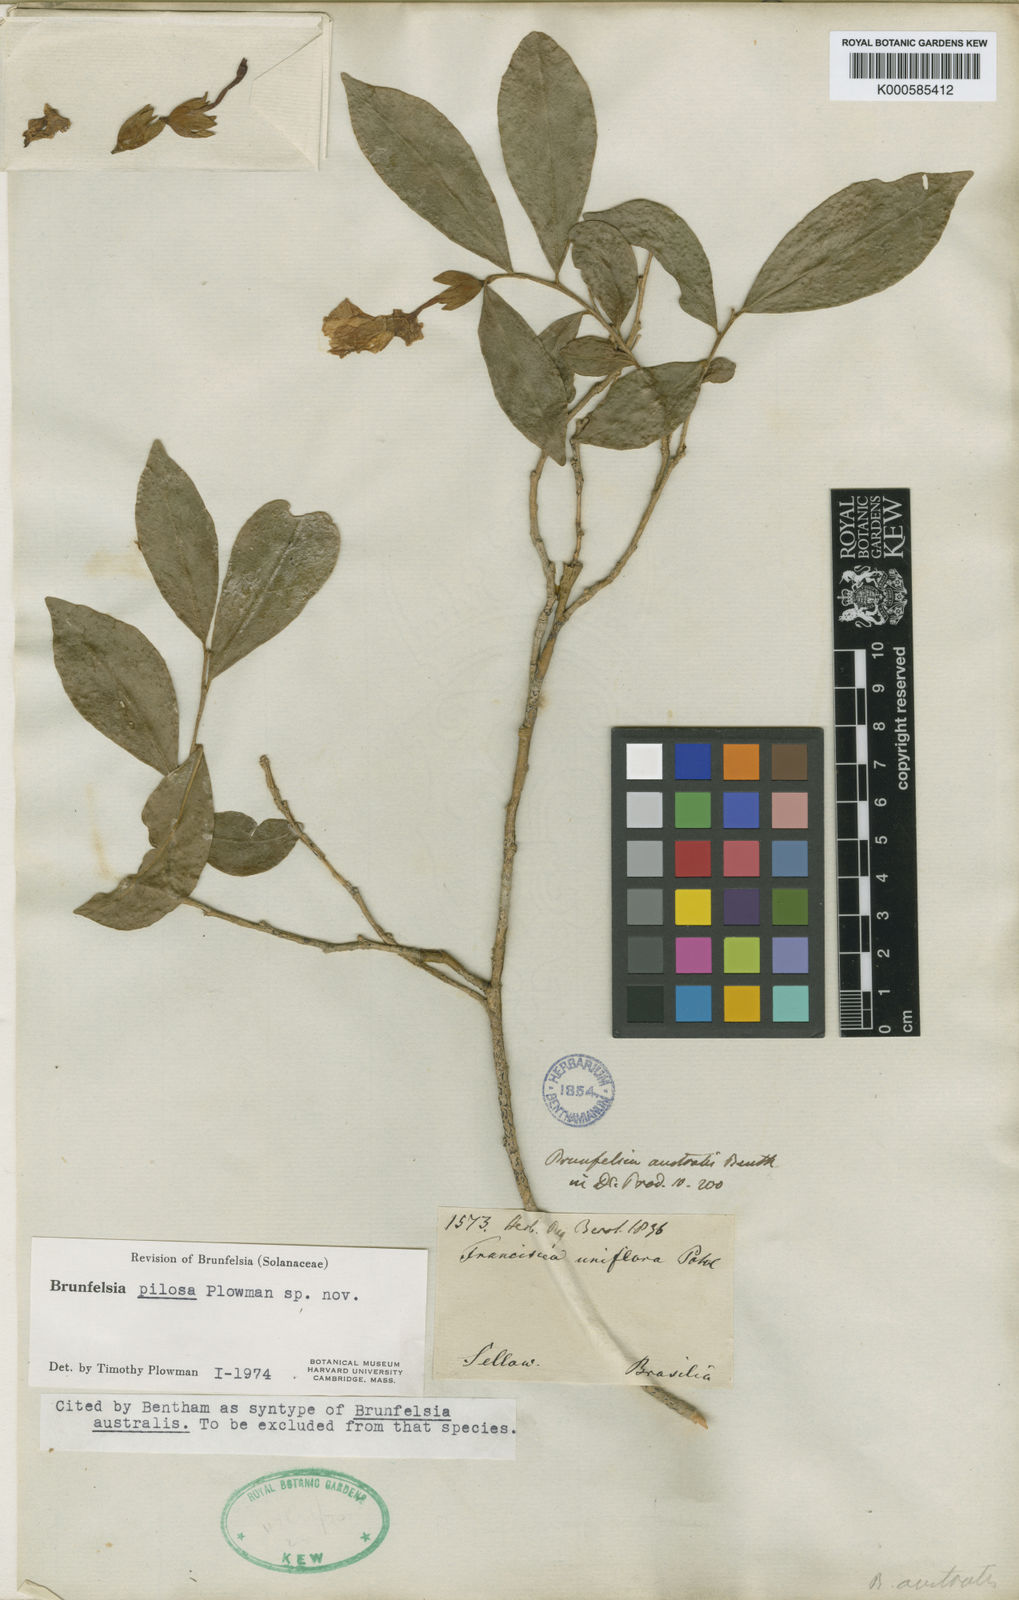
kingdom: Plantae
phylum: Tracheophyta
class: Magnoliopsida
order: Solanales
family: Solanaceae
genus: Brunfelsia
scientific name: Brunfelsia pilosa
